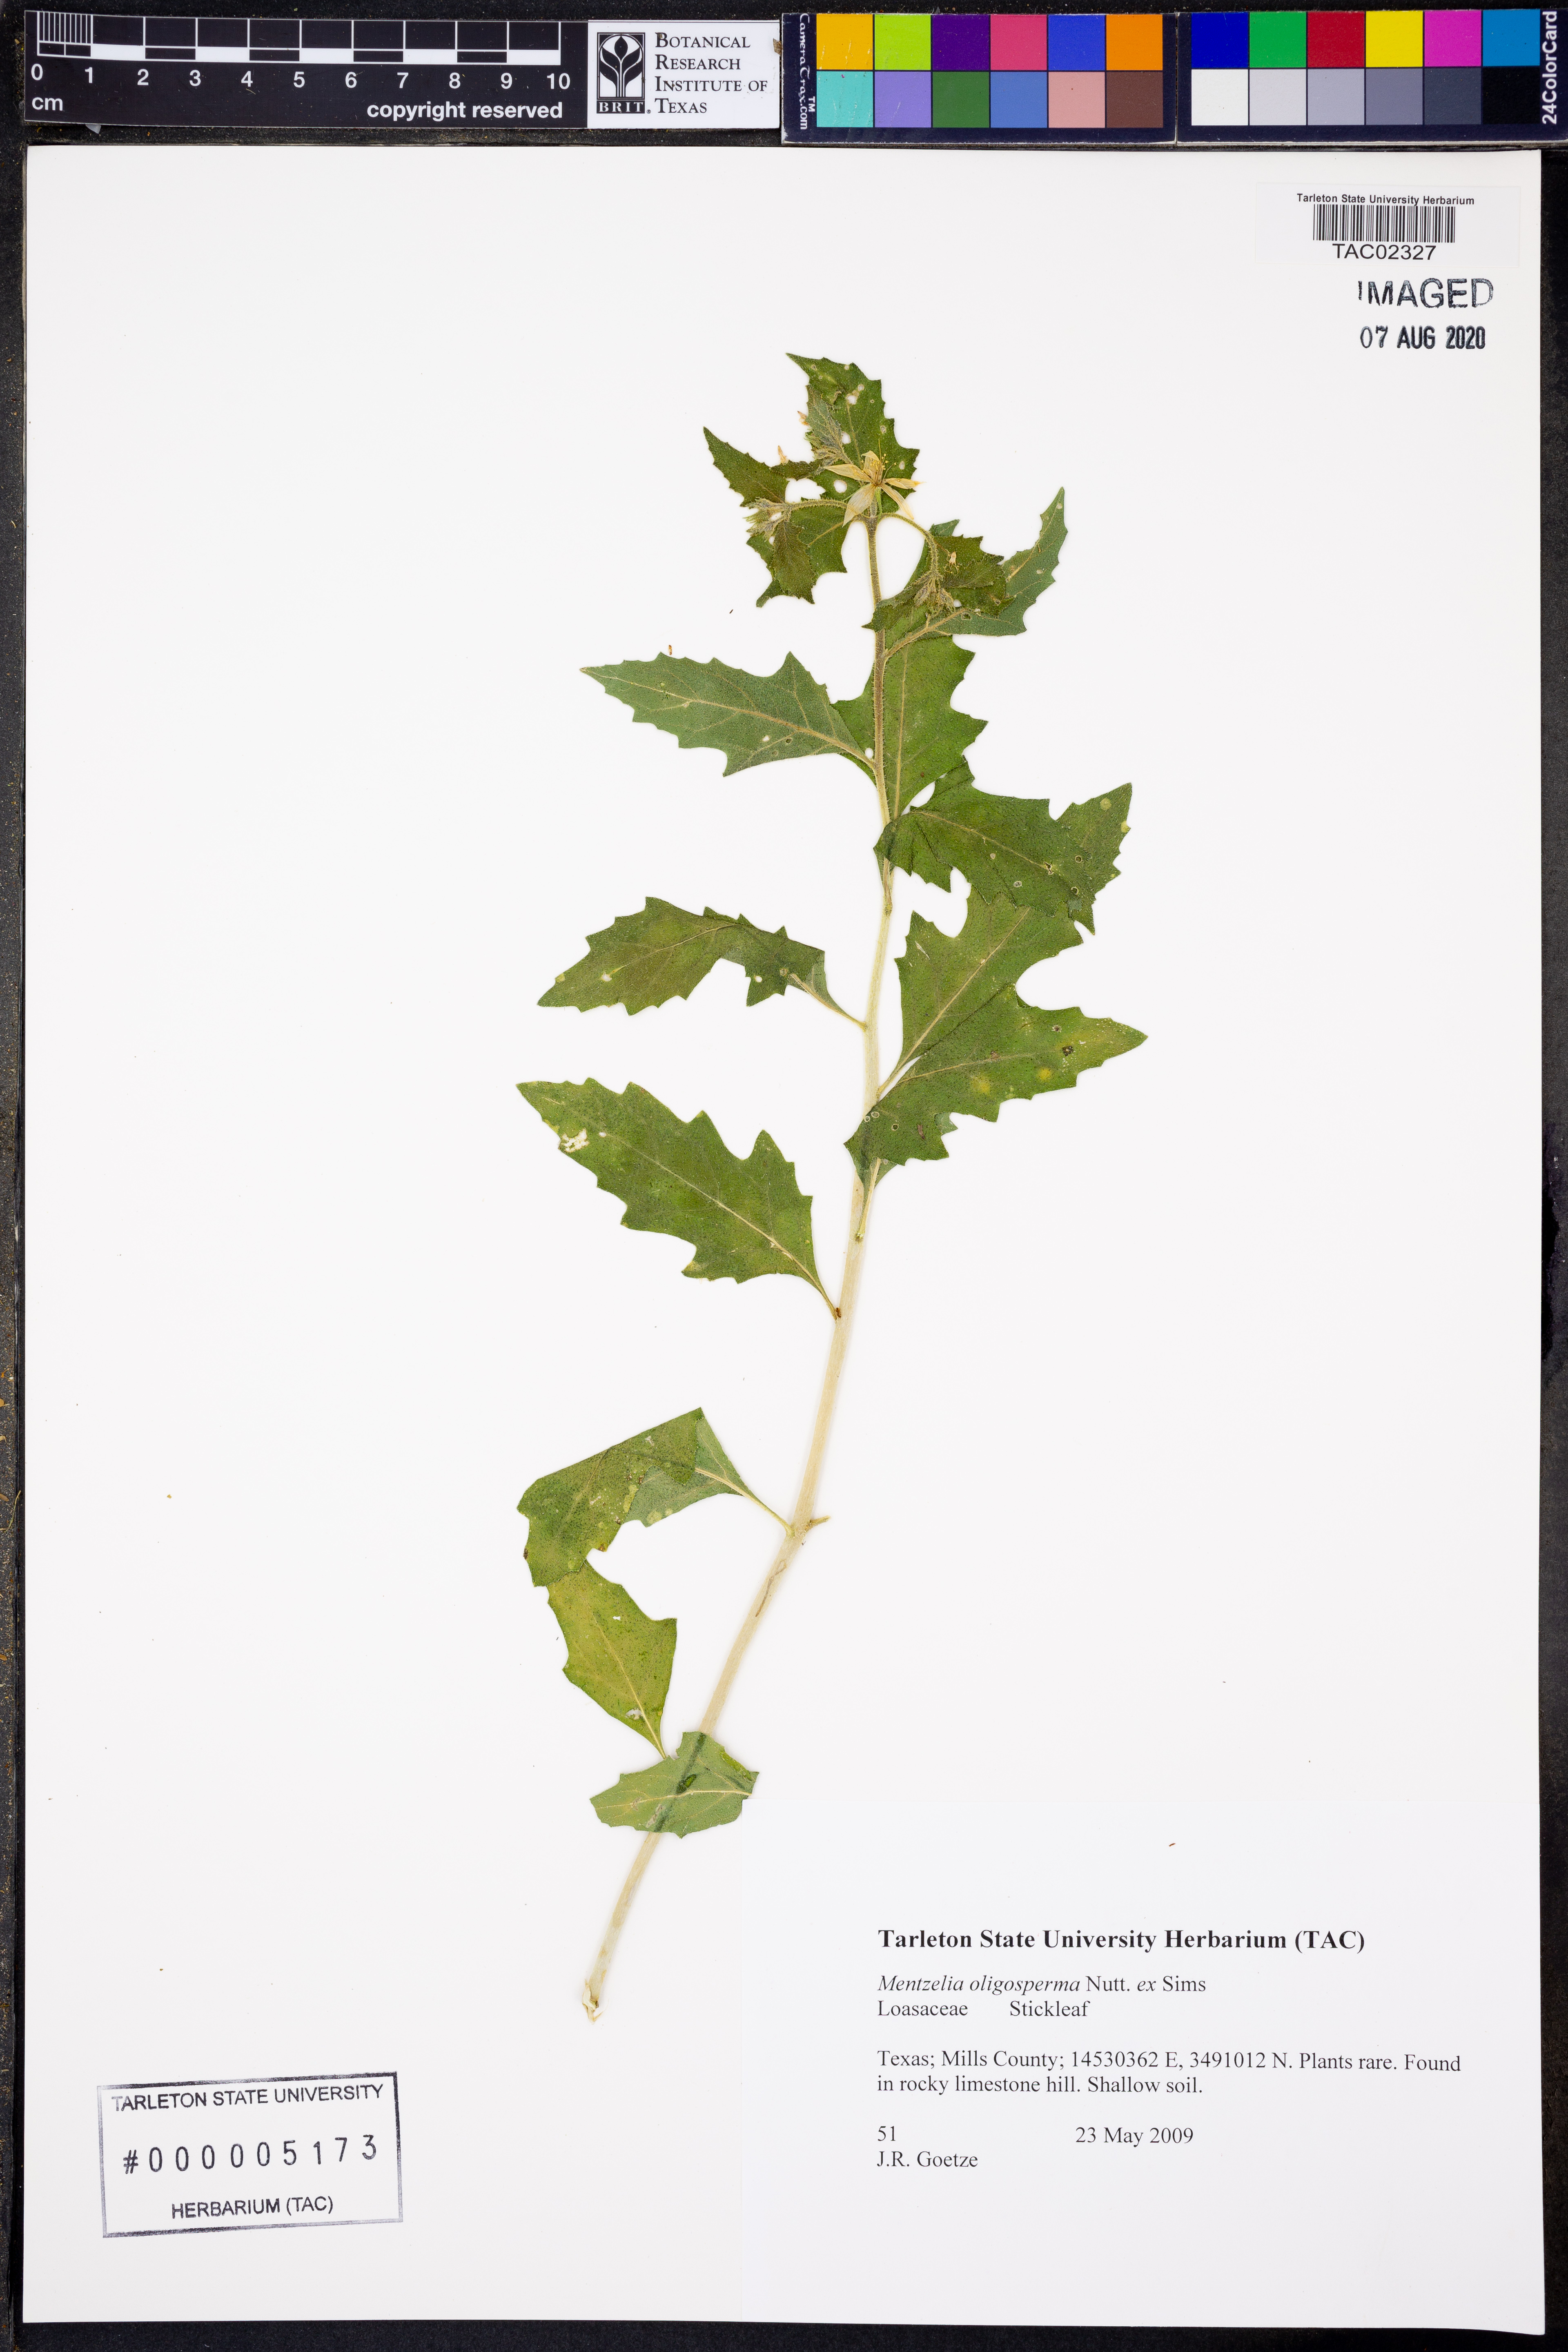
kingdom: Plantae
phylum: Tracheophyta
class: Magnoliopsida
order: Cornales
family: Loasaceae
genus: Mentzelia
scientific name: Mentzelia oligosperma
